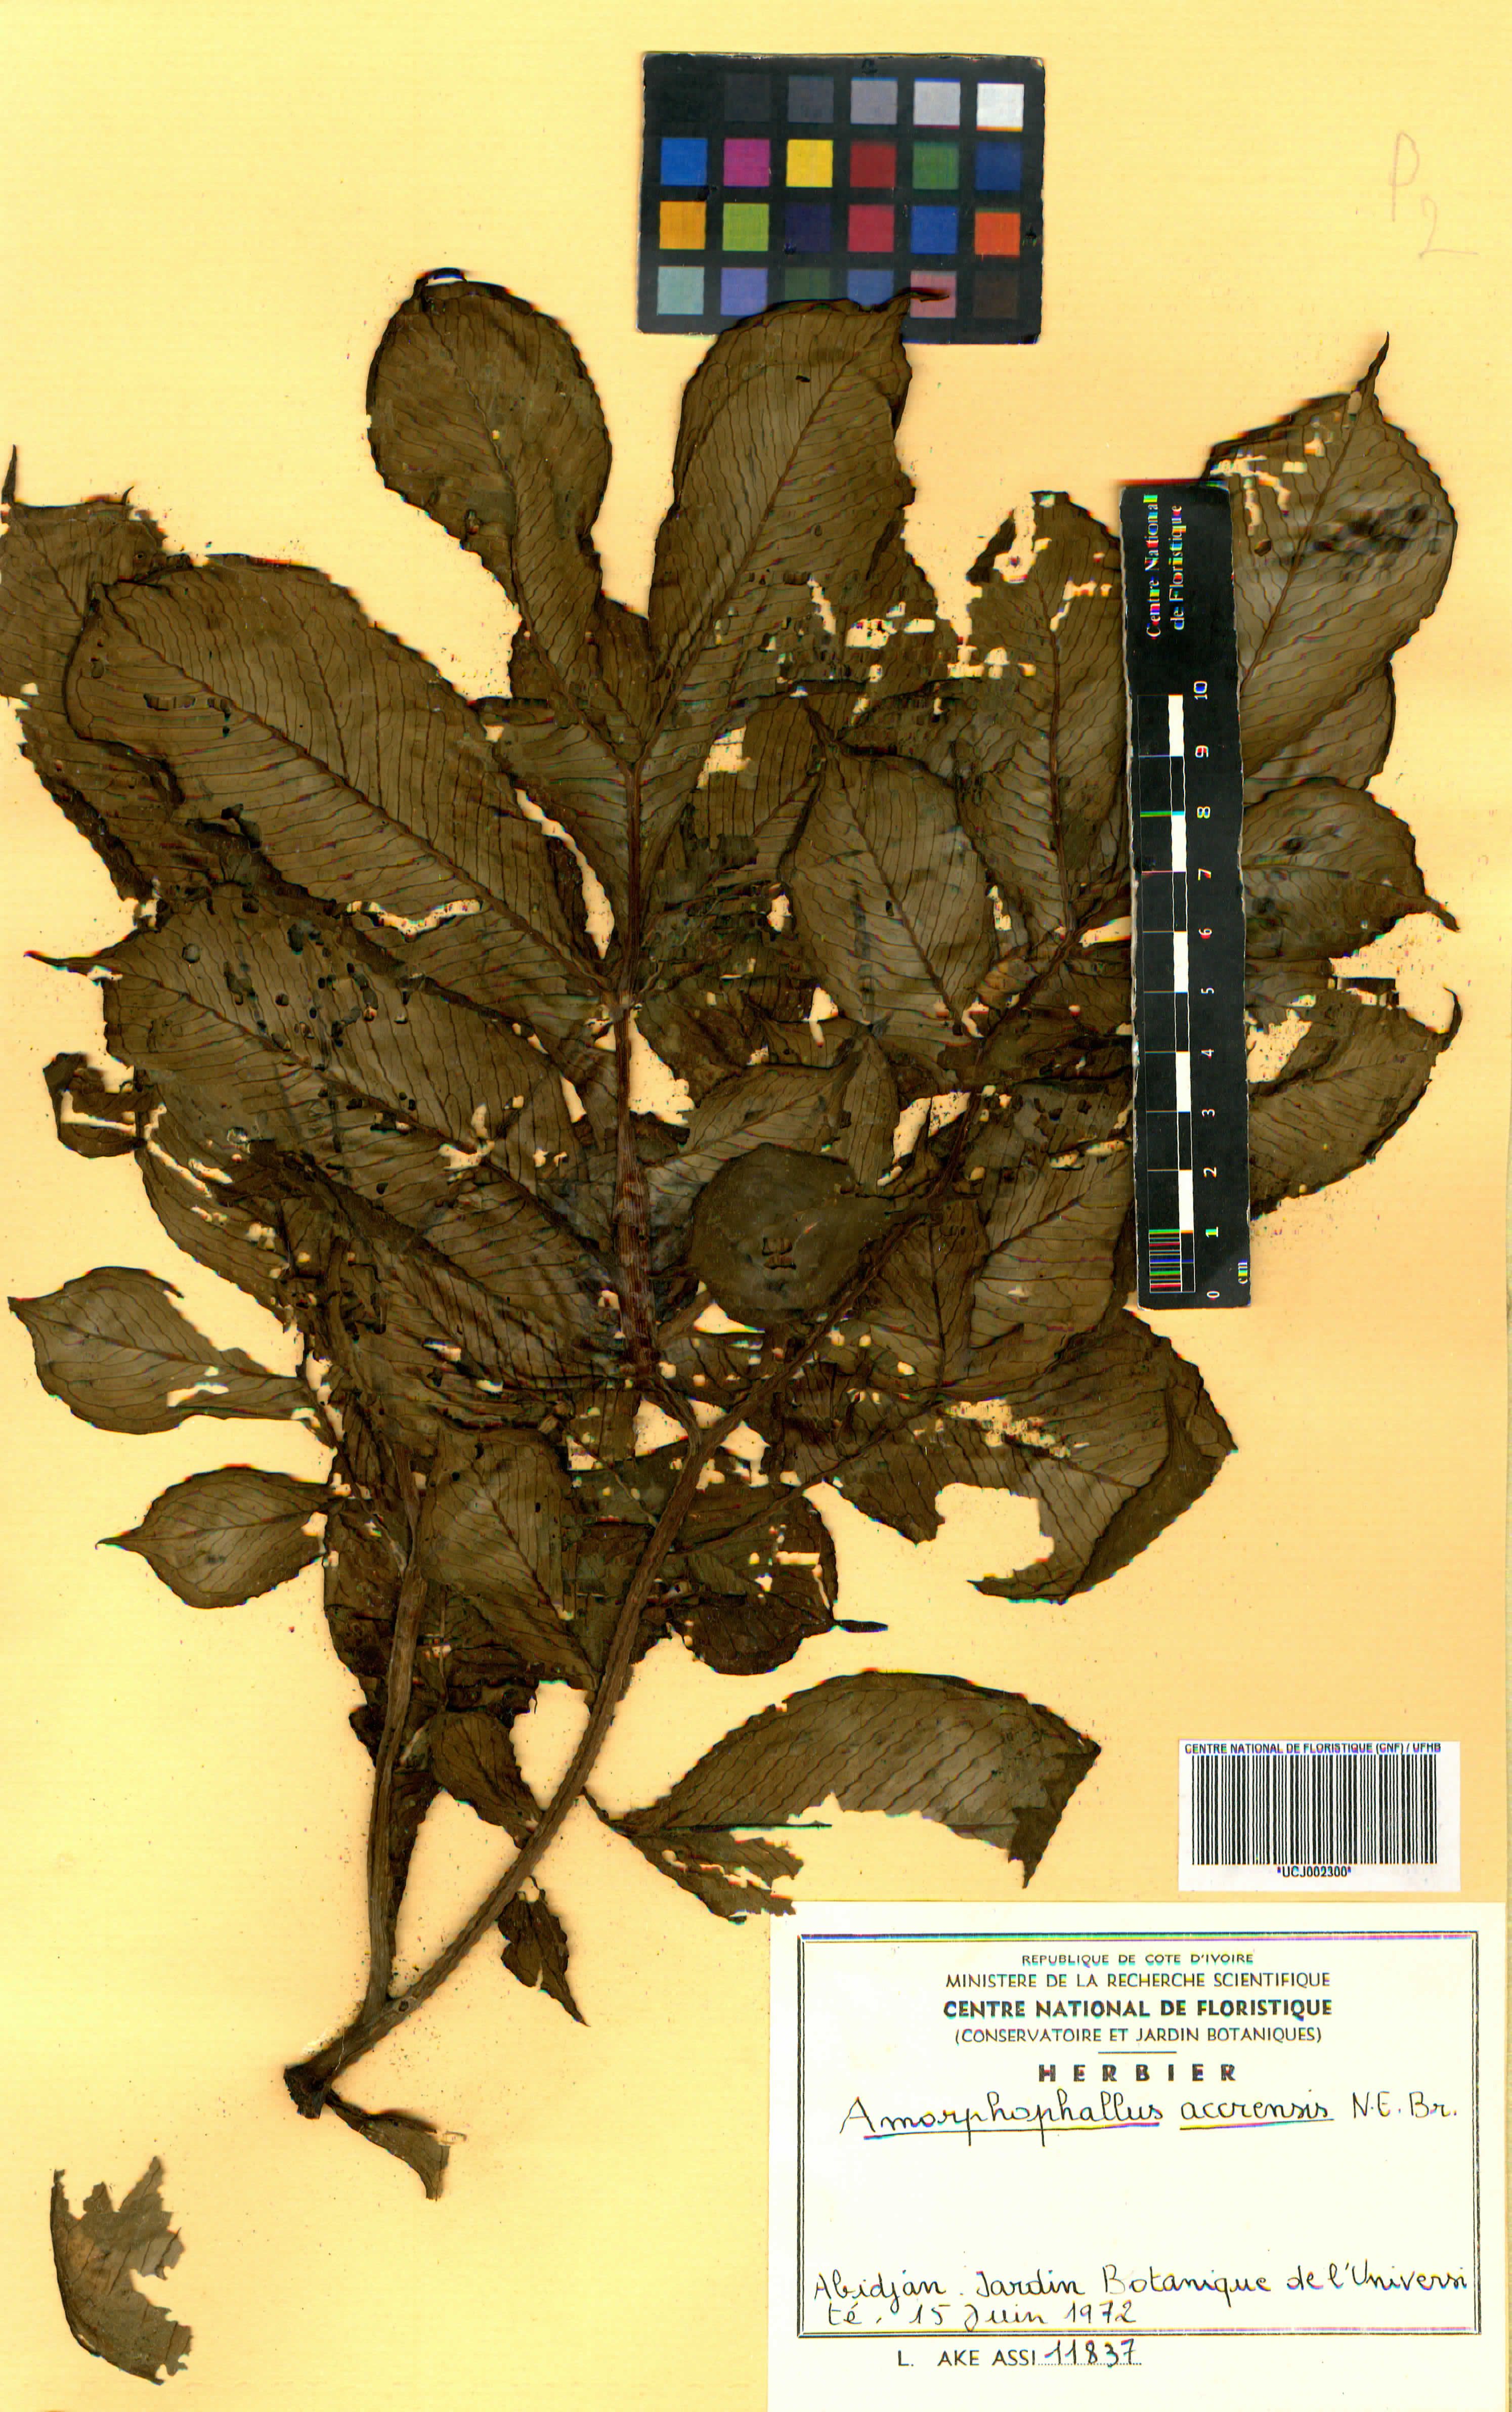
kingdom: Plantae
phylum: Tracheophyta
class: Liliopsida
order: Alismatales
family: Araceae
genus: Amorphophallus
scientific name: Amorphophallus johnsonii
